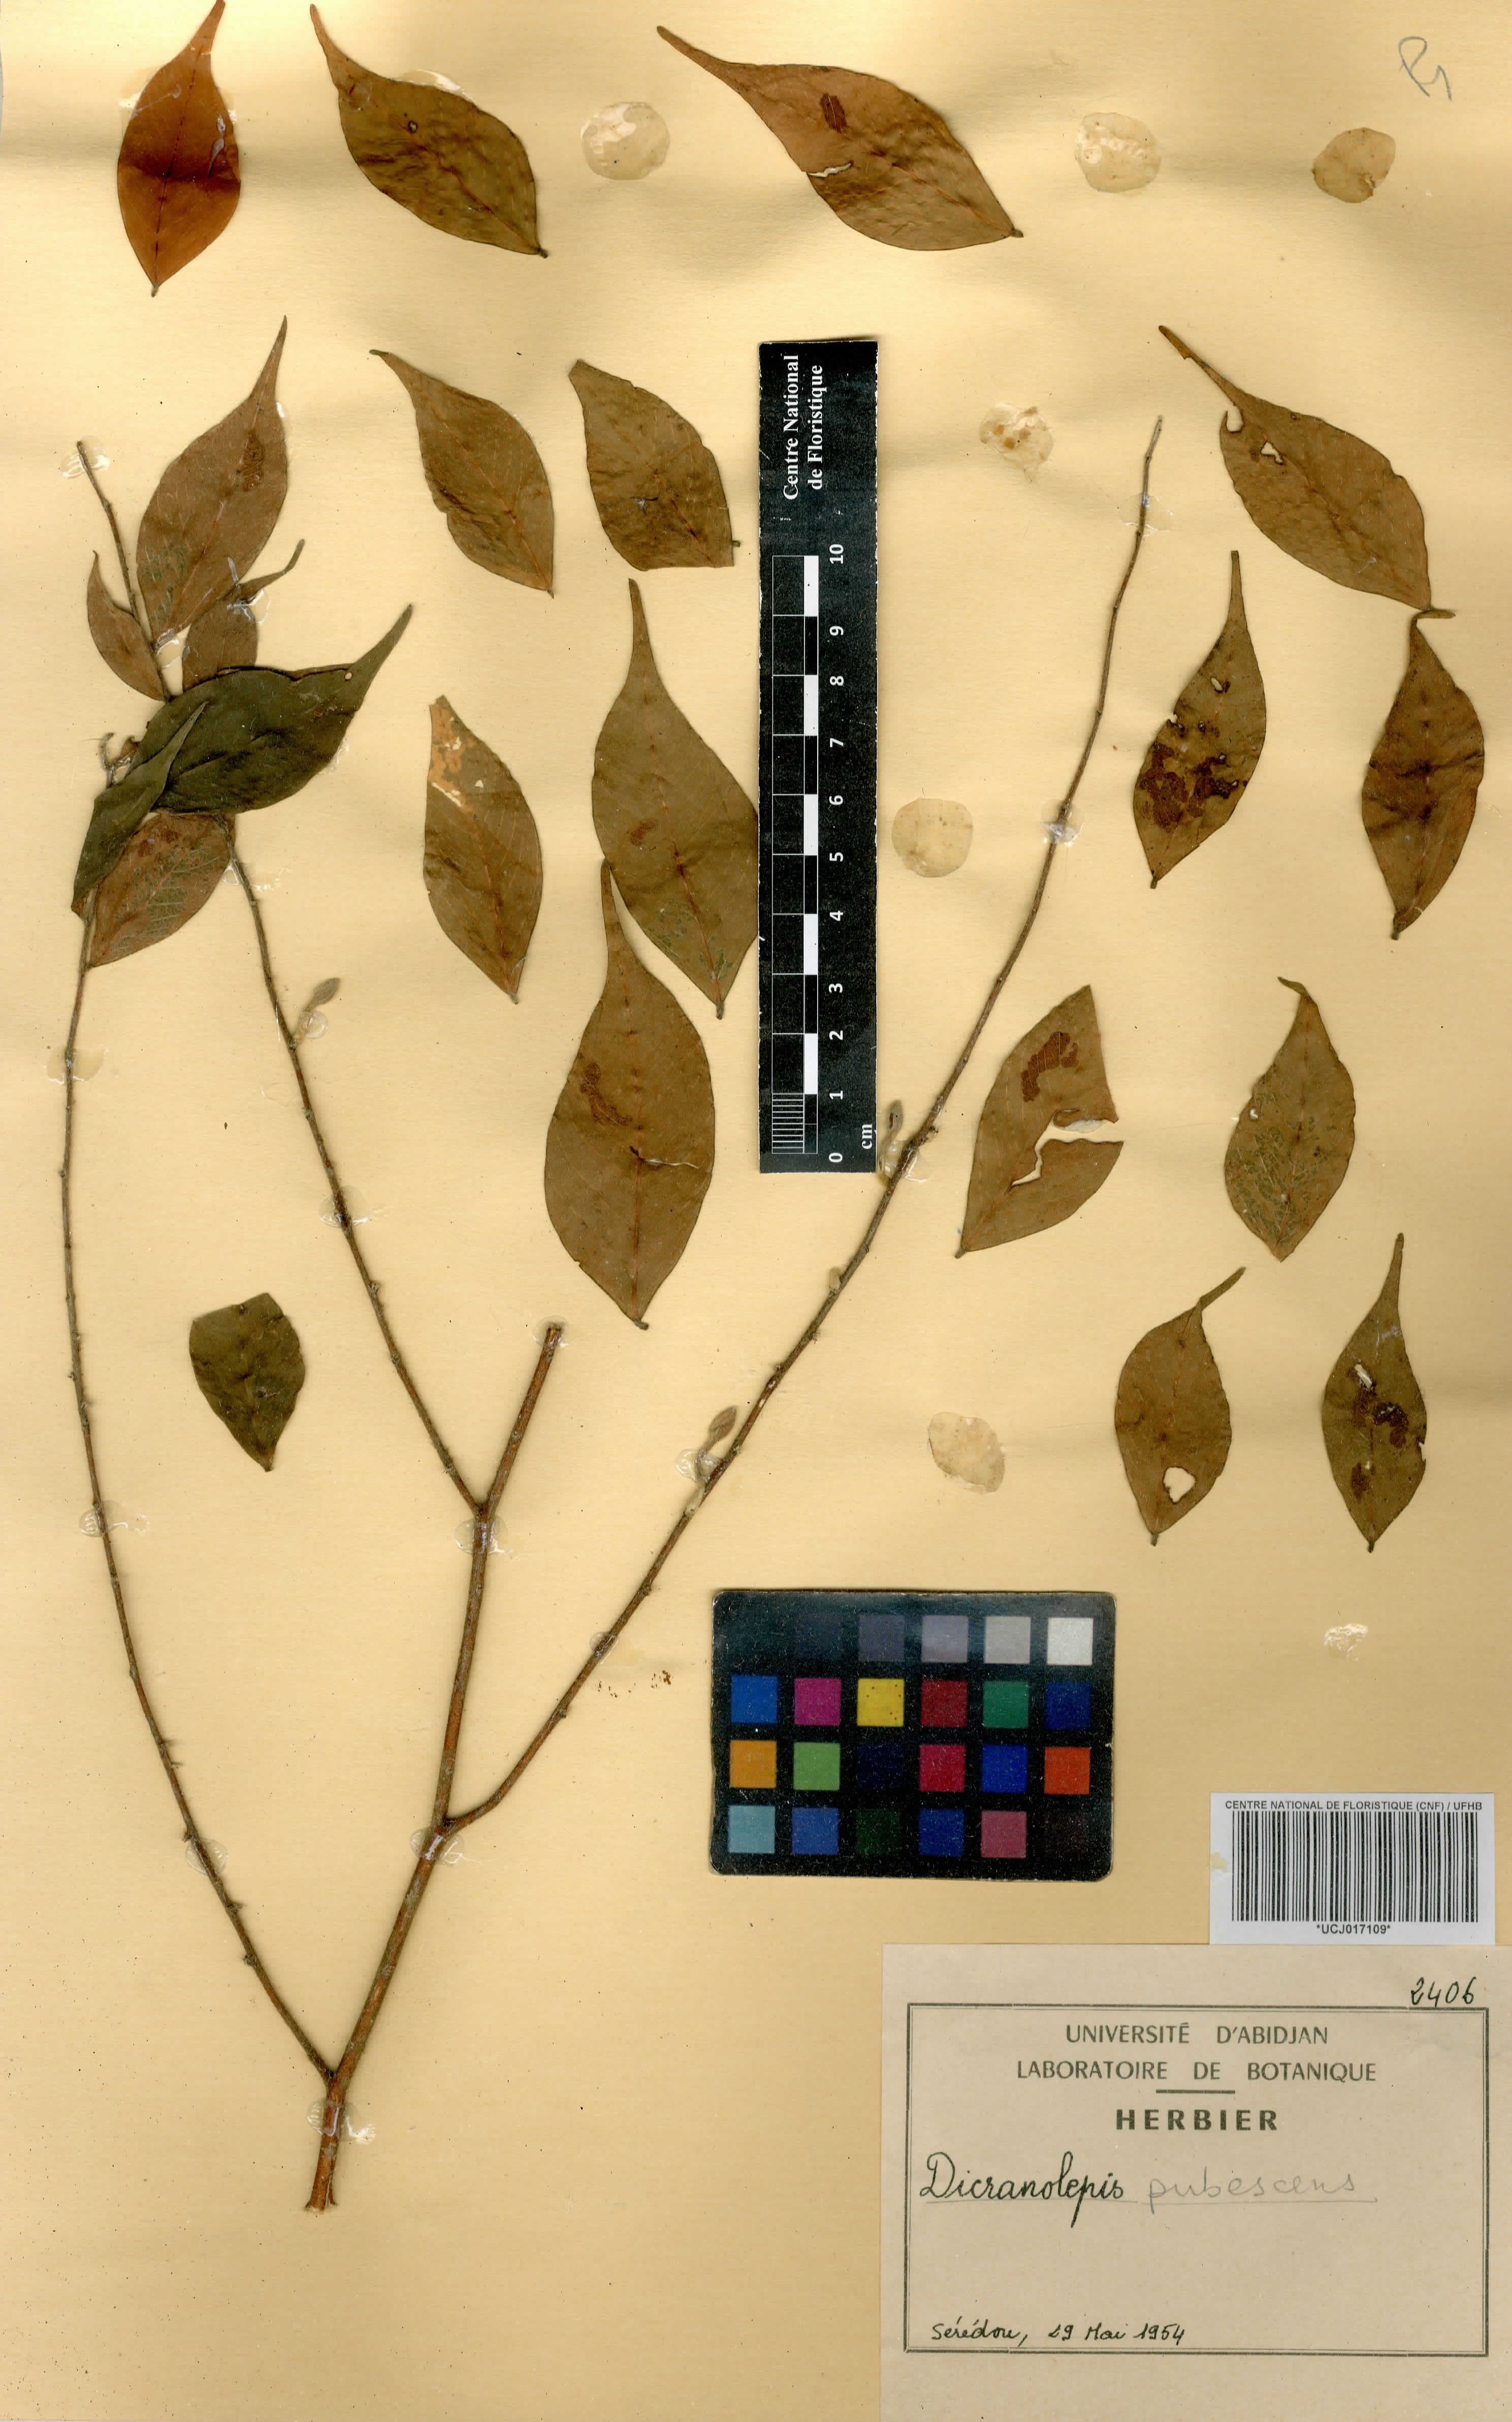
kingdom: Plantae
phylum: Tracheophyta
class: Magnoliopsida
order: Malvales
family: Thymelaeaceae
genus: Dicranolepis
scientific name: Dicranolepis pubescens
